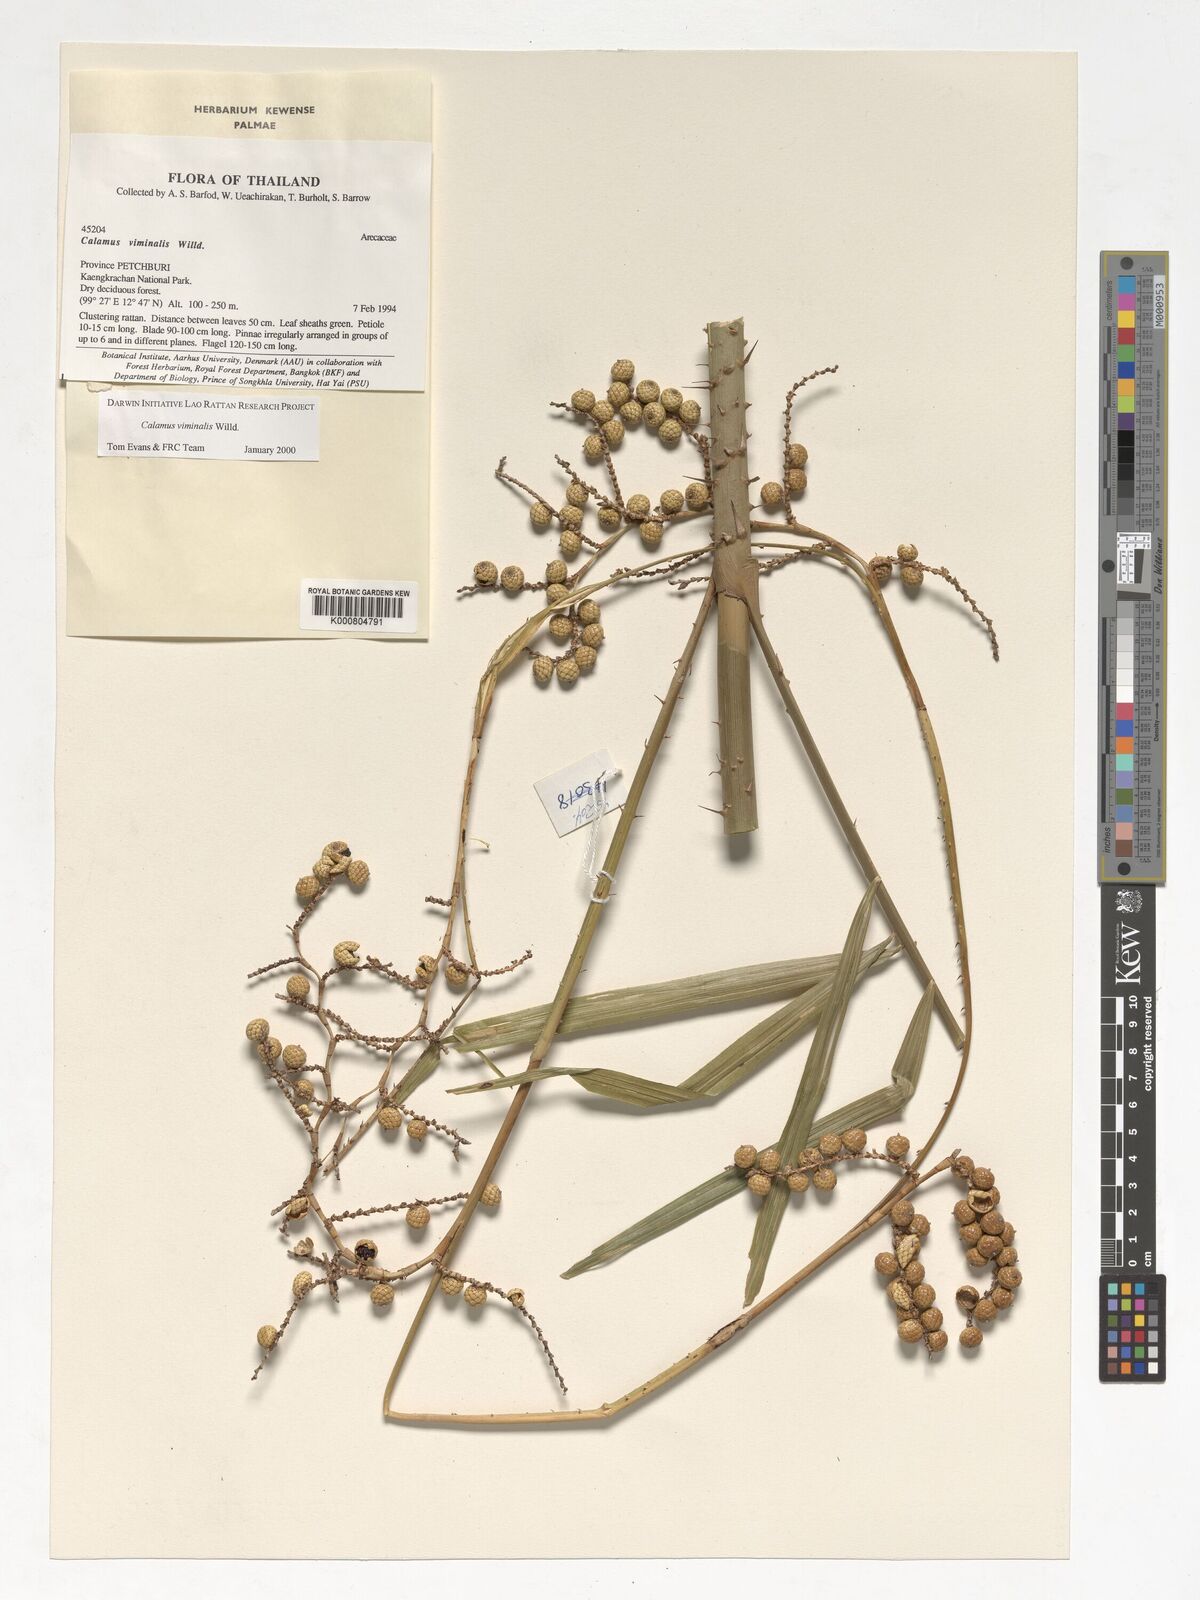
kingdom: Plantae
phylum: Tracheophyta
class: Liliopsida
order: Arecales
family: Arecaceae
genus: Calamus
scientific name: Calamus viminalis
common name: Osier-like rattan palm
